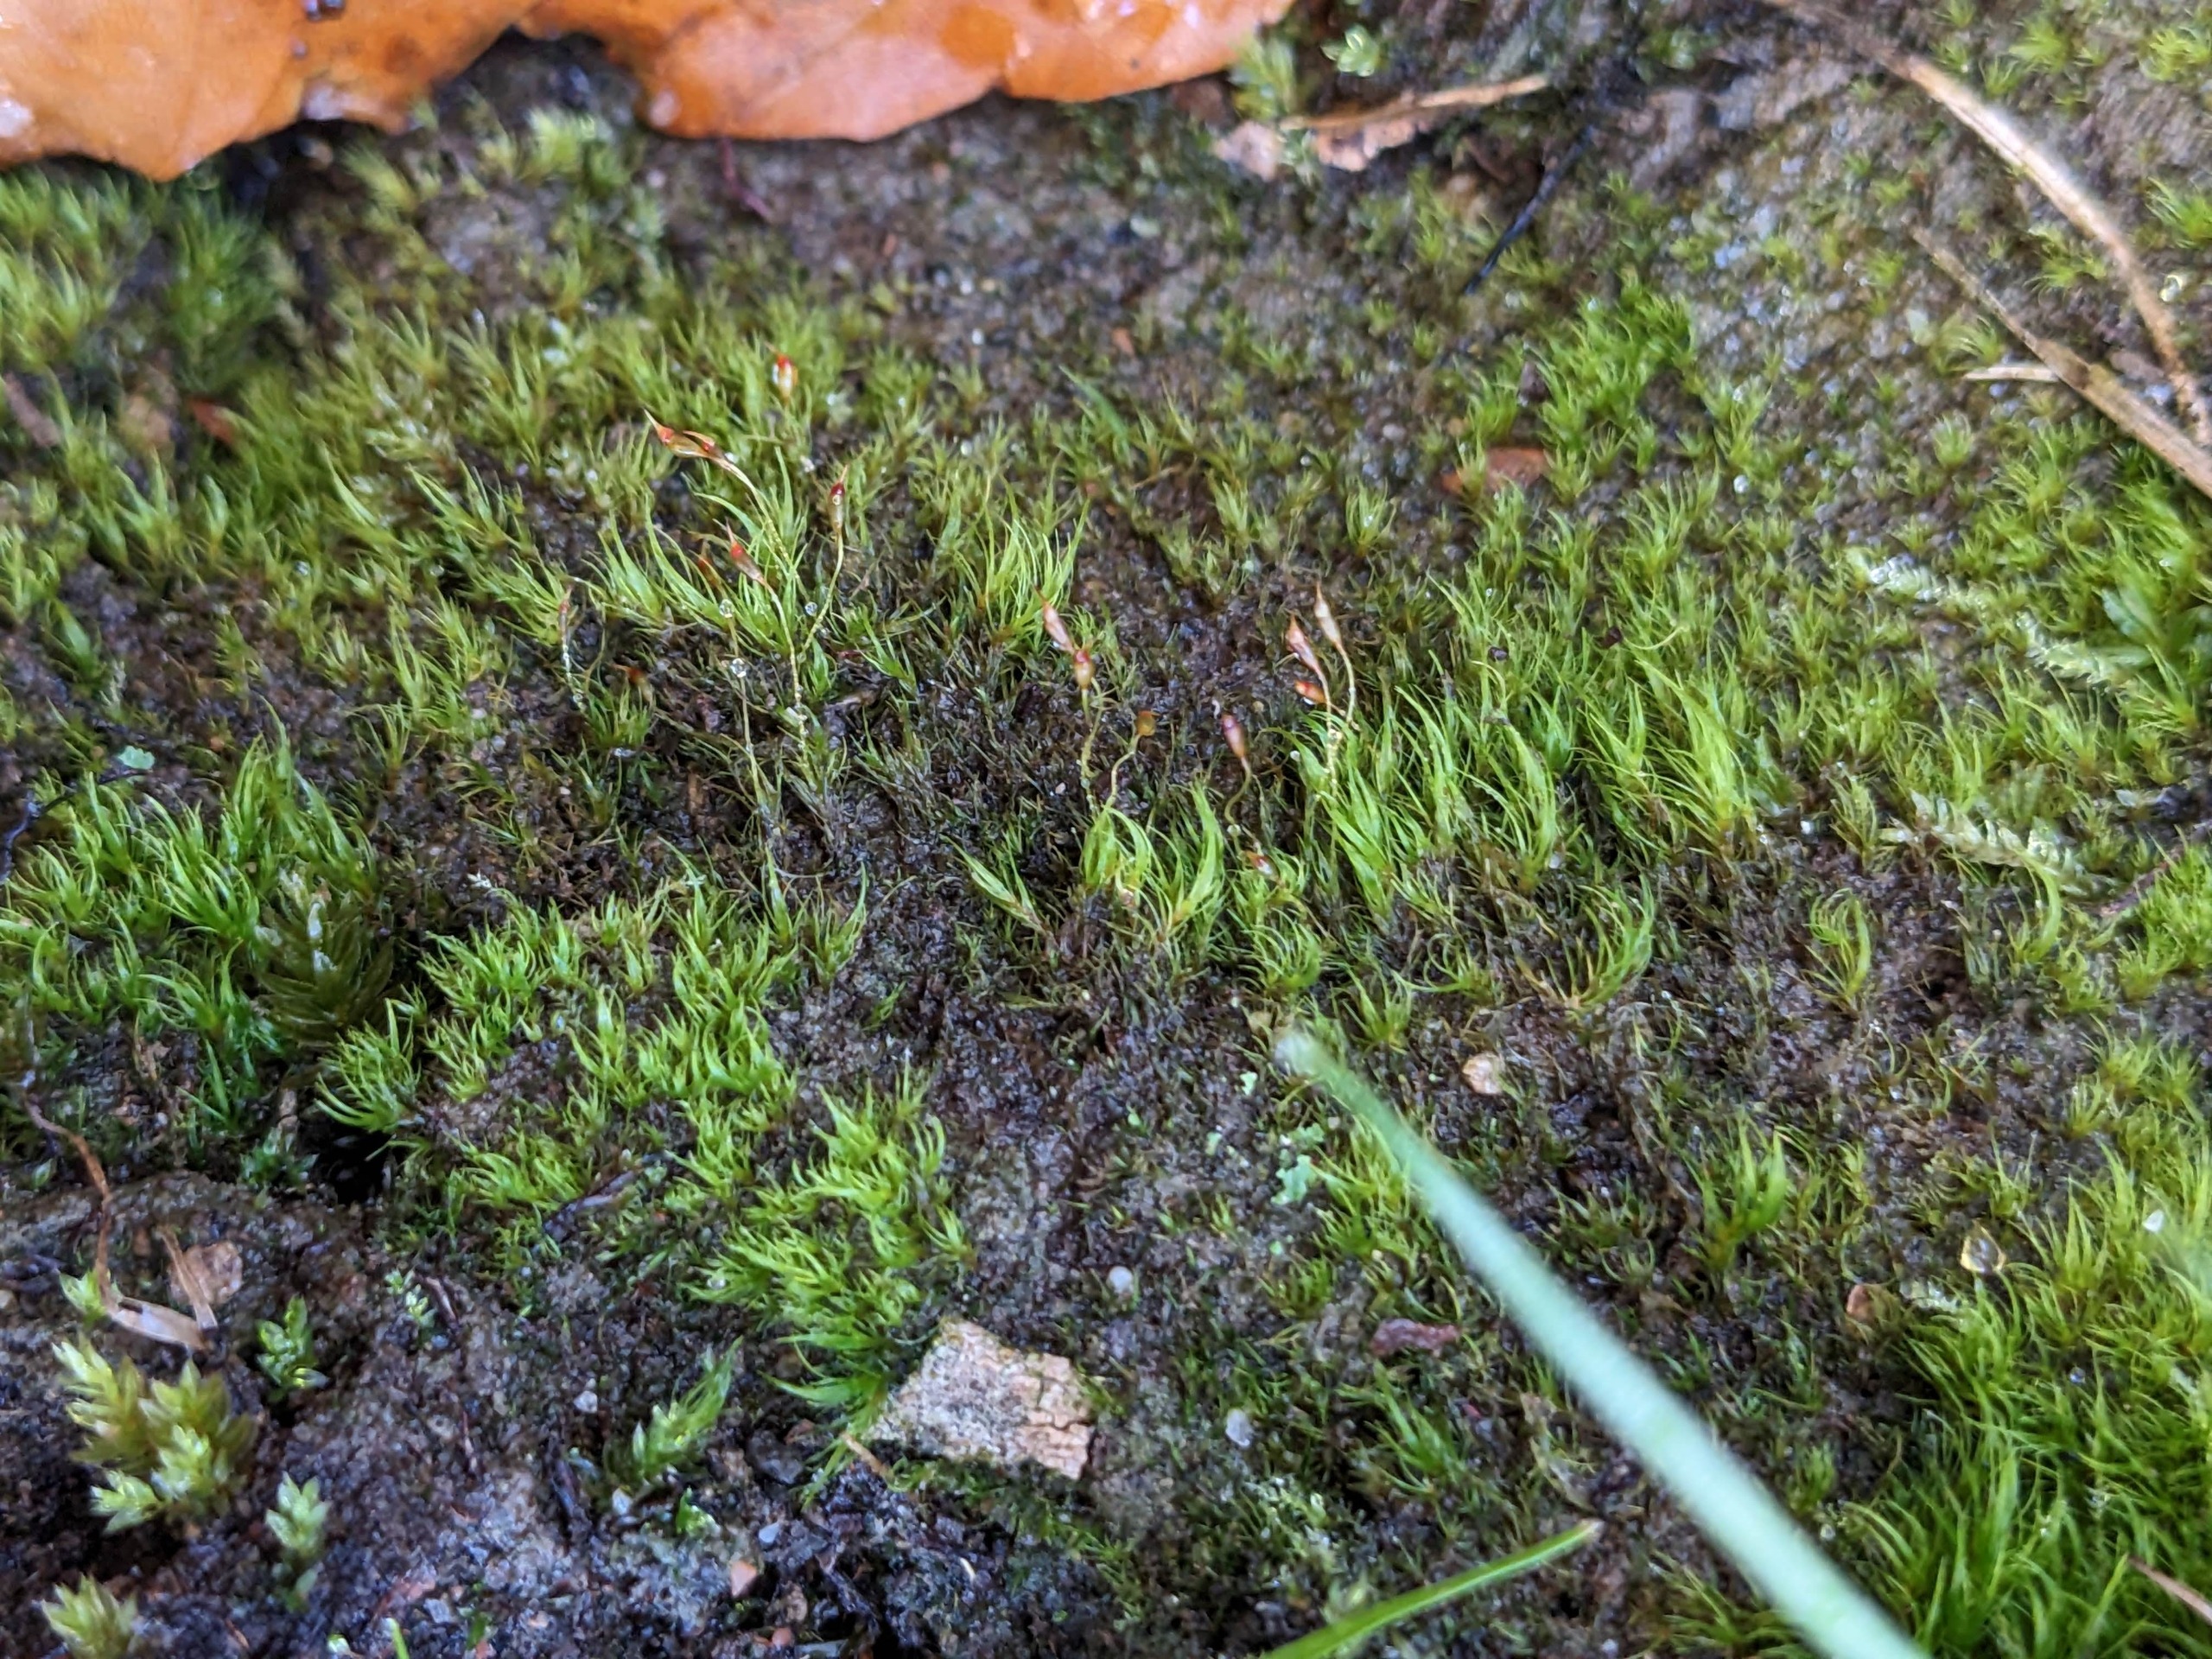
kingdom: Plantae
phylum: Bryophyta
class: Bryopsida
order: Dicranales
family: Dicranellaceae
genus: Dicranella
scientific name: Dicranella heteromalla
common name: Almindelig fløjlsmos
